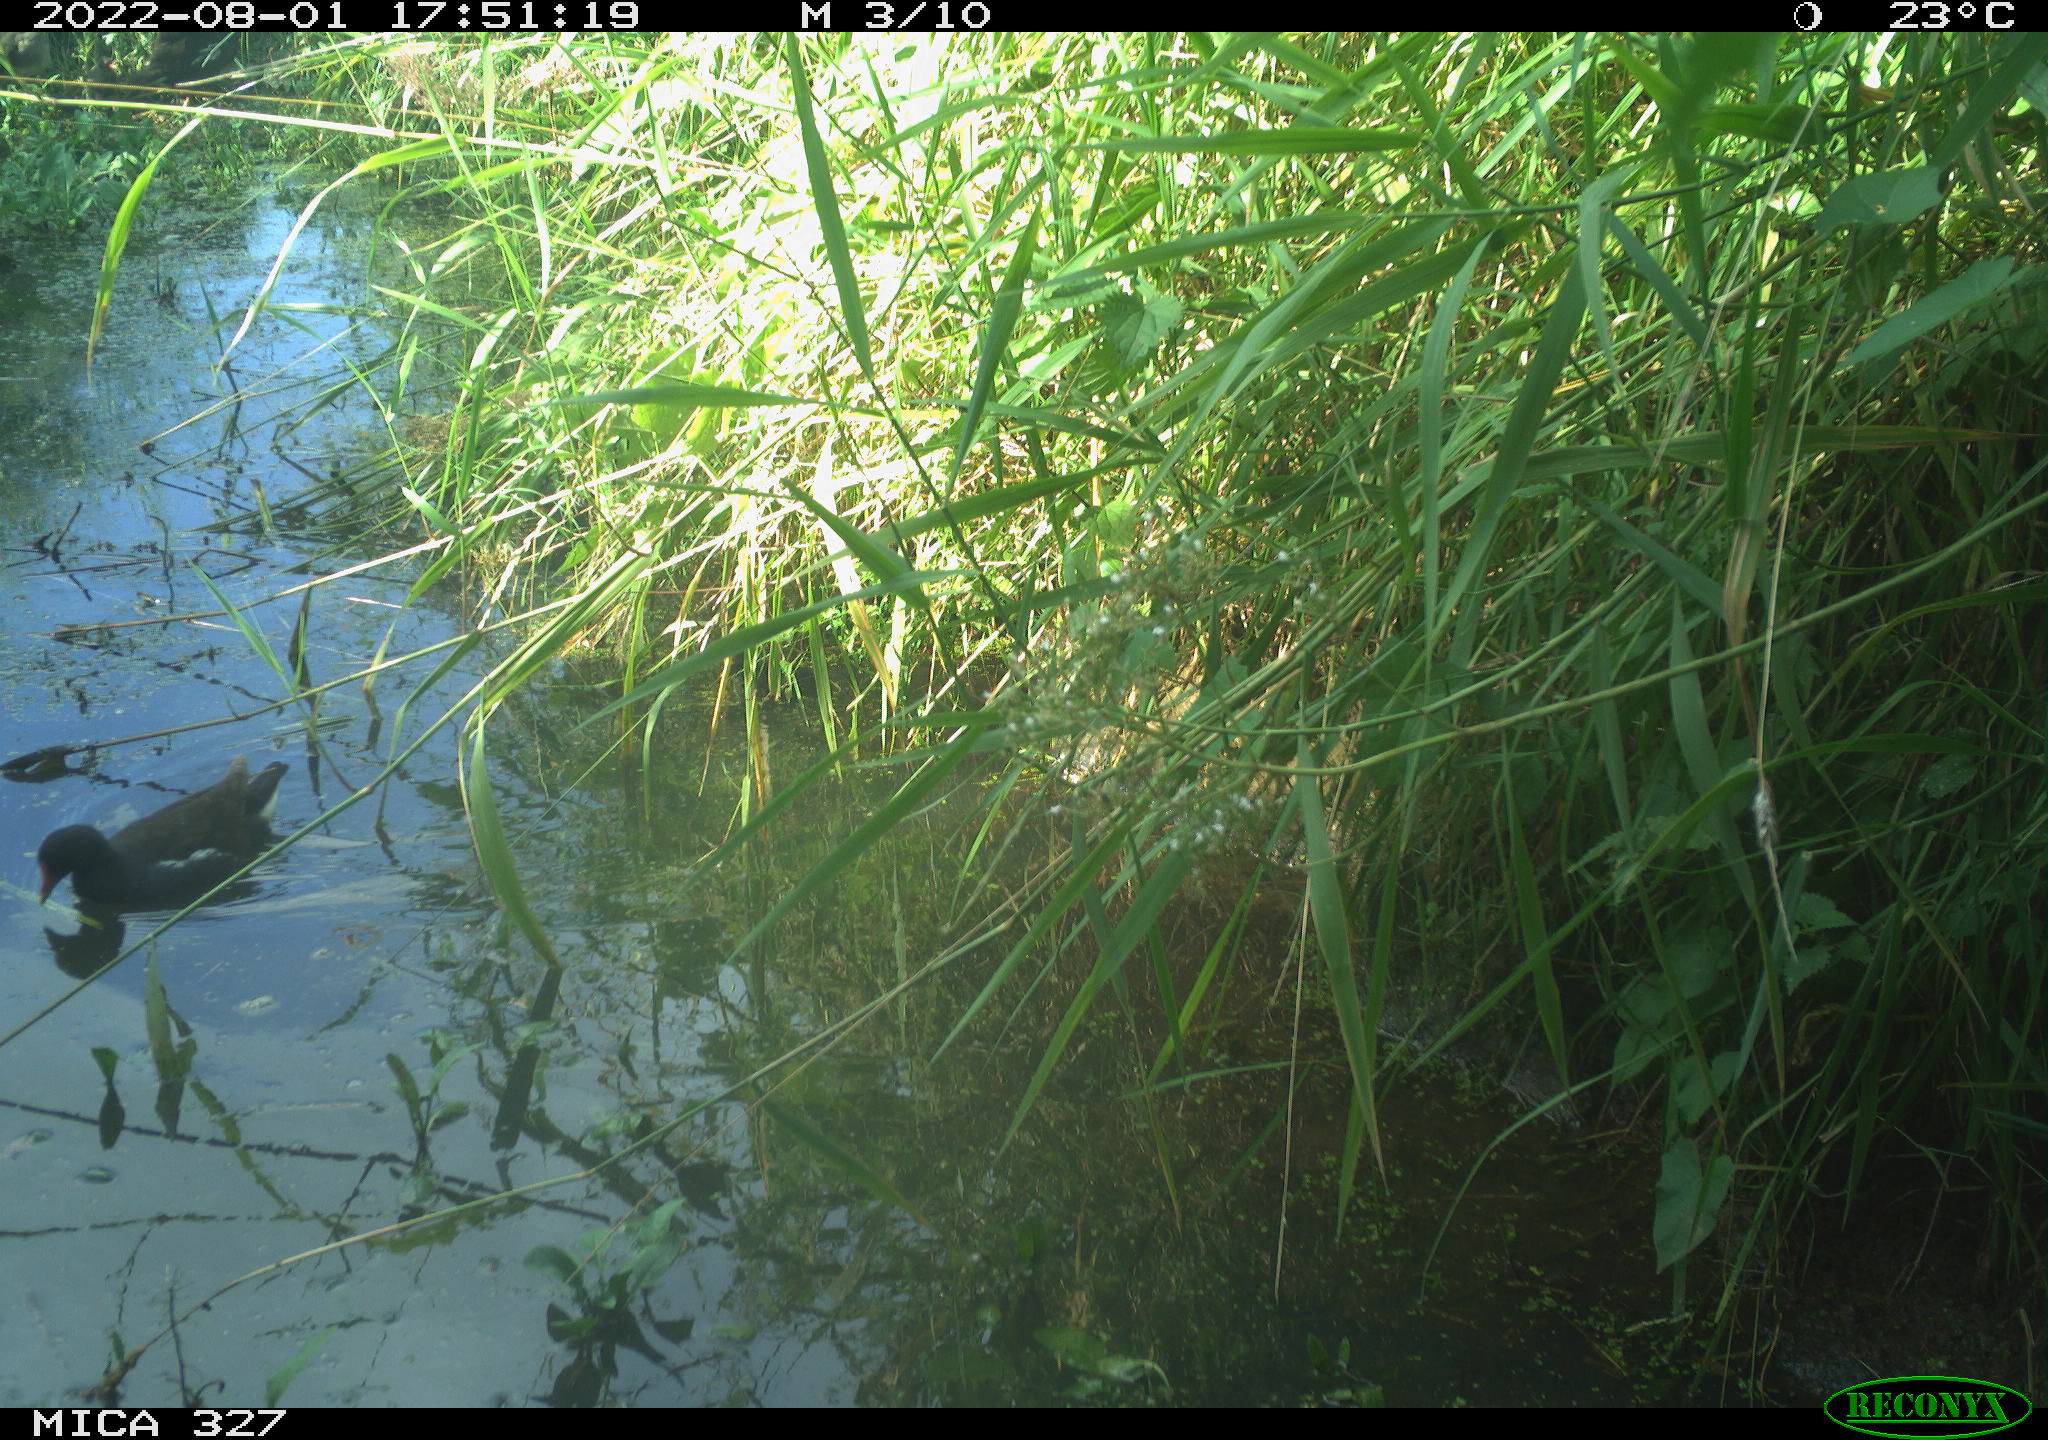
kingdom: Animalia
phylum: Chordata
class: Aves
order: Gruiformes
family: Rallidae
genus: Gallinula
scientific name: Gallinula chloropus
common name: Common moorhen
